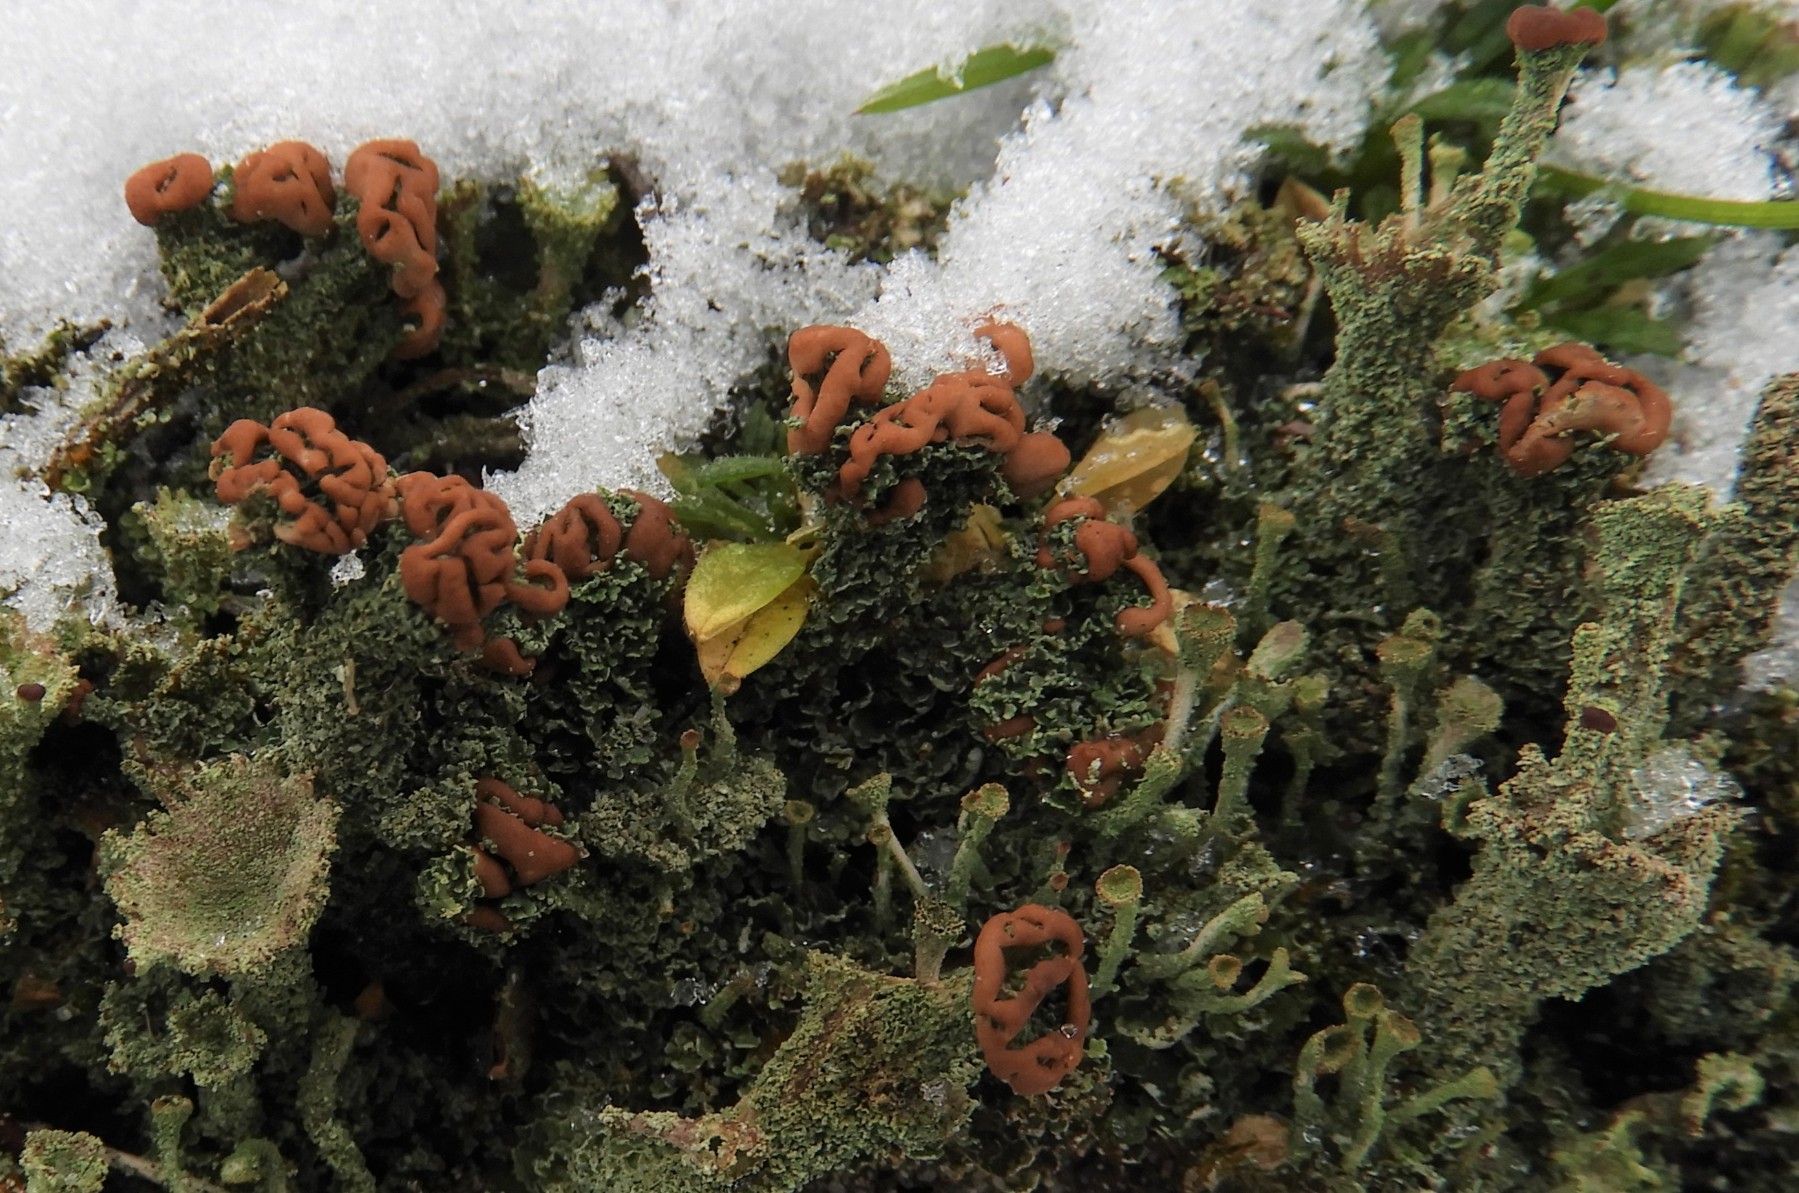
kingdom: Fungi
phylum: Ascomycota
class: Lecanoromycetes
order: Lecanorales
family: Cladoniaceae
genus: Cladonia
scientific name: Cladonia ramulosa
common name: kliddet bægerlav
